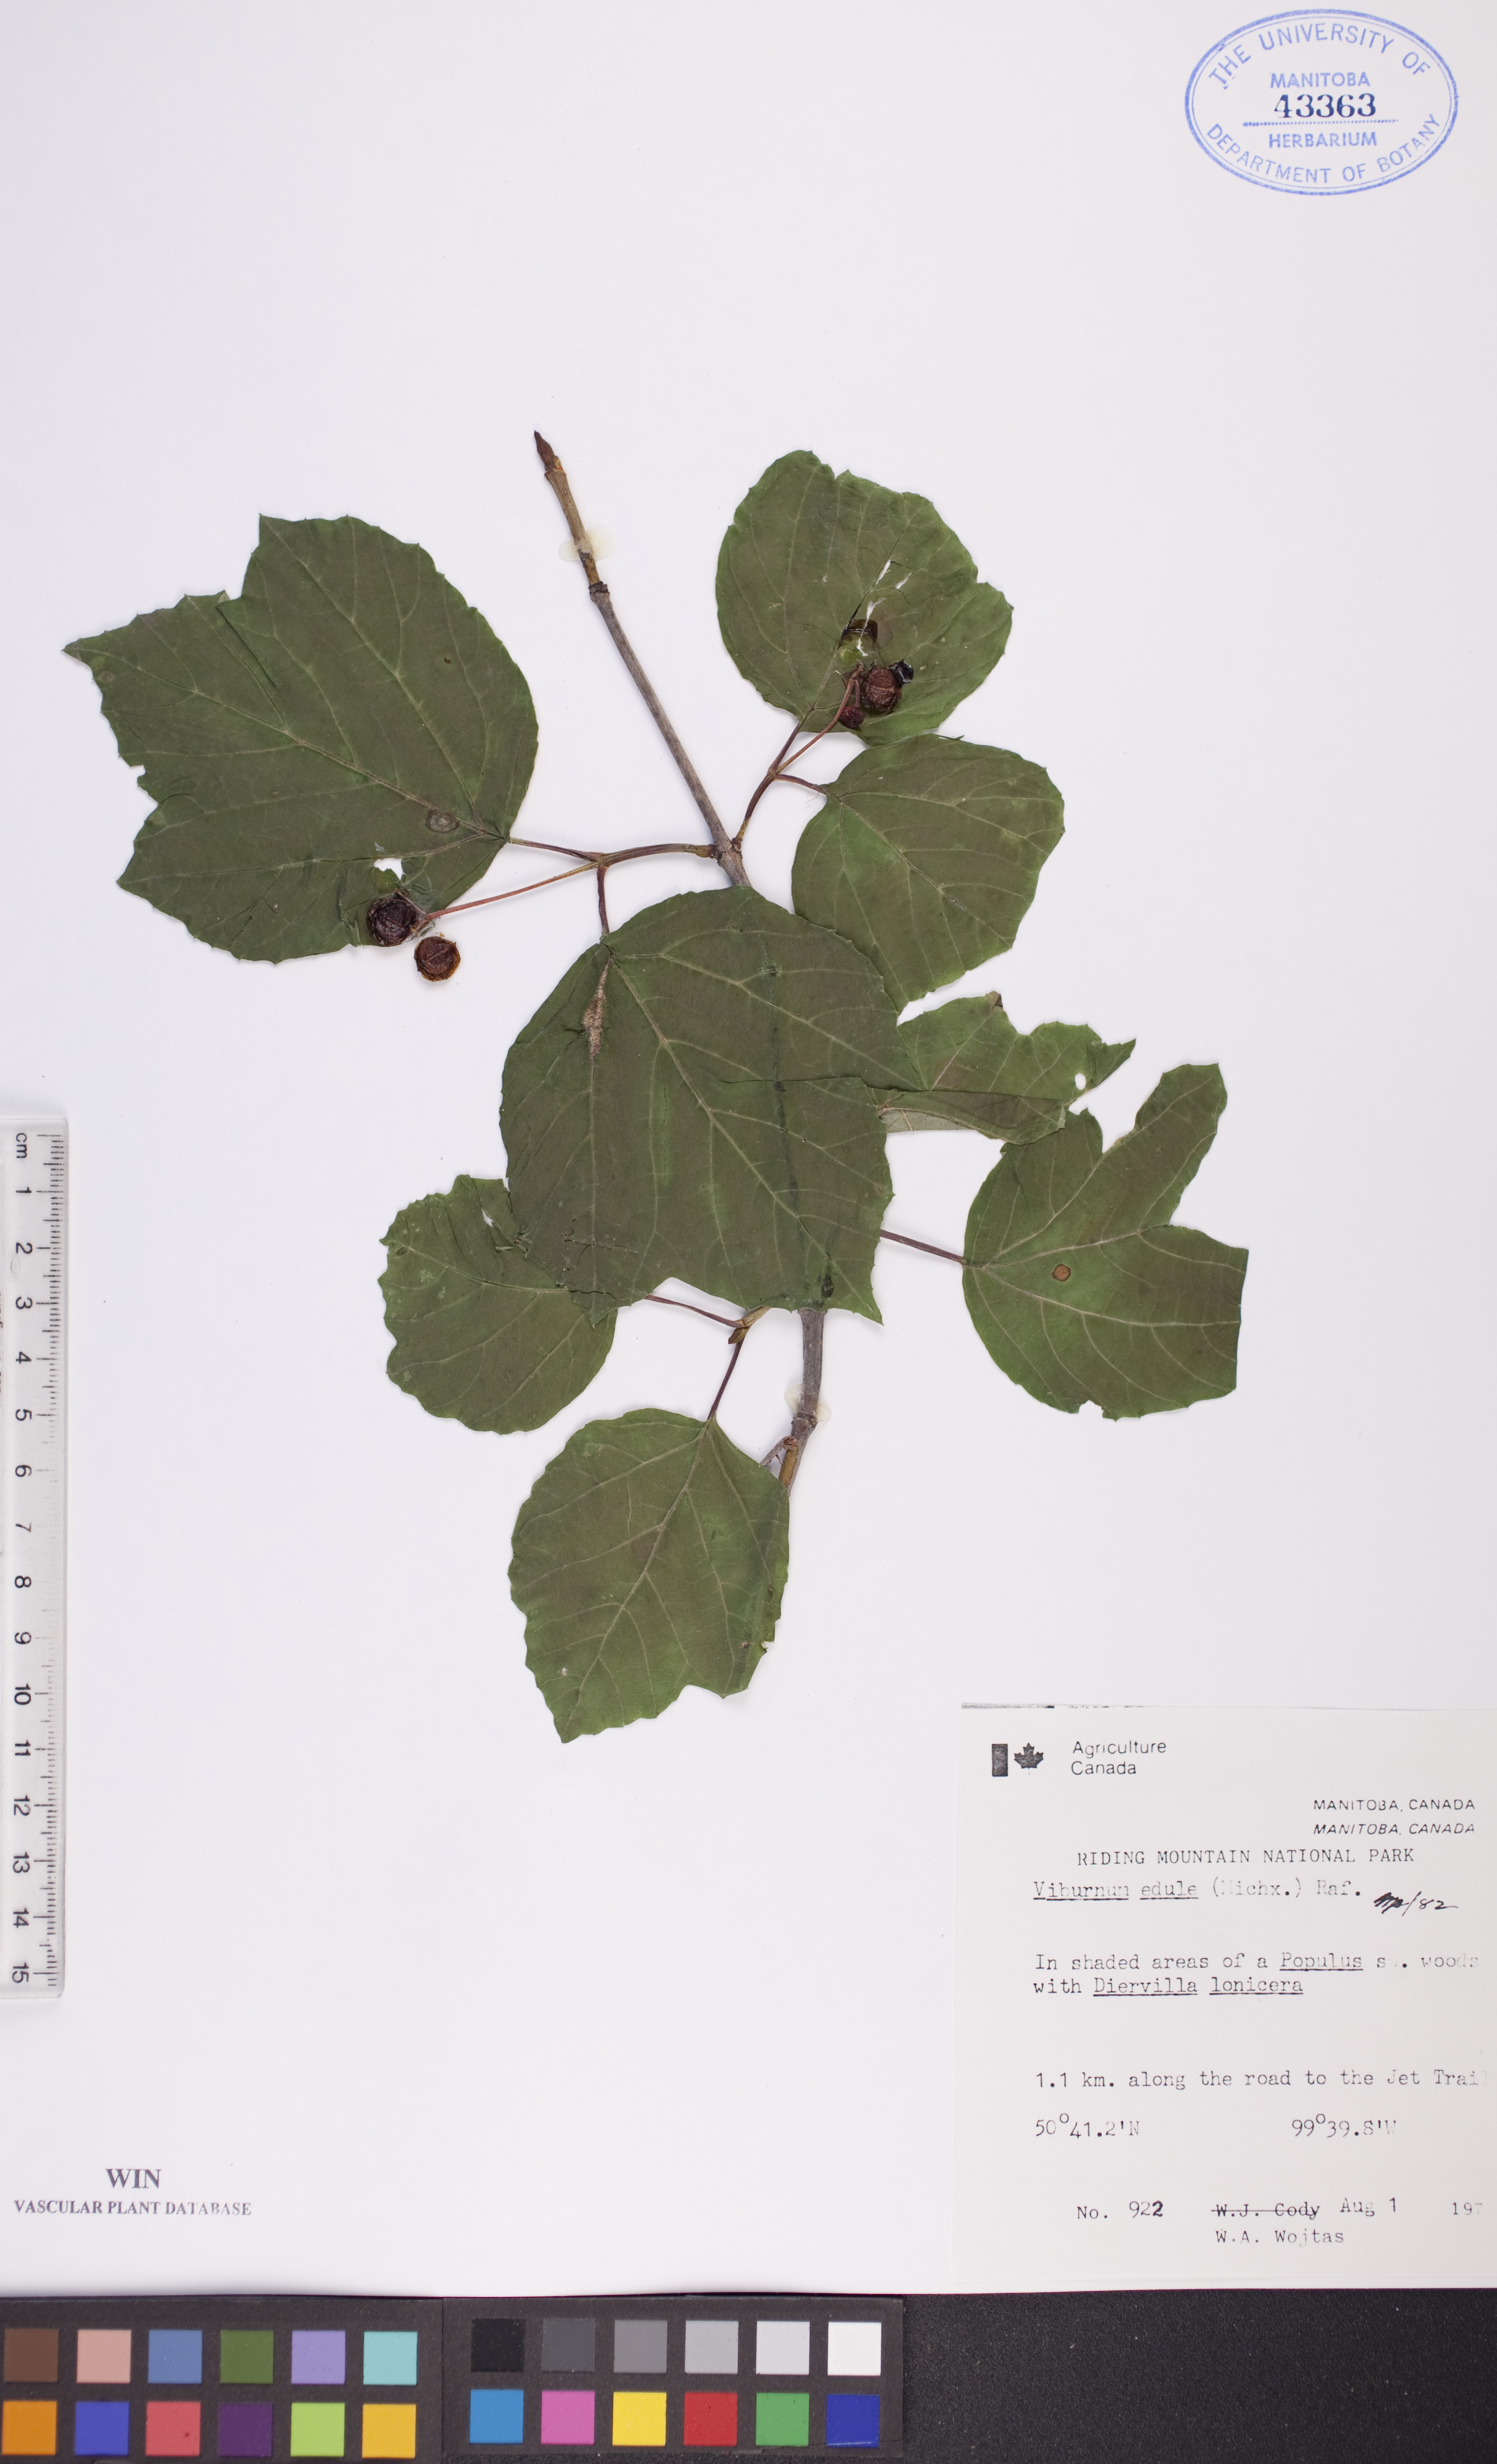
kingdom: Plantae
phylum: Tracheophyta
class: Magnoliopsida
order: Dipsacales
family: Viburnaceae
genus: Viburnum
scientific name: Viburnum edule
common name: Mooseberry
